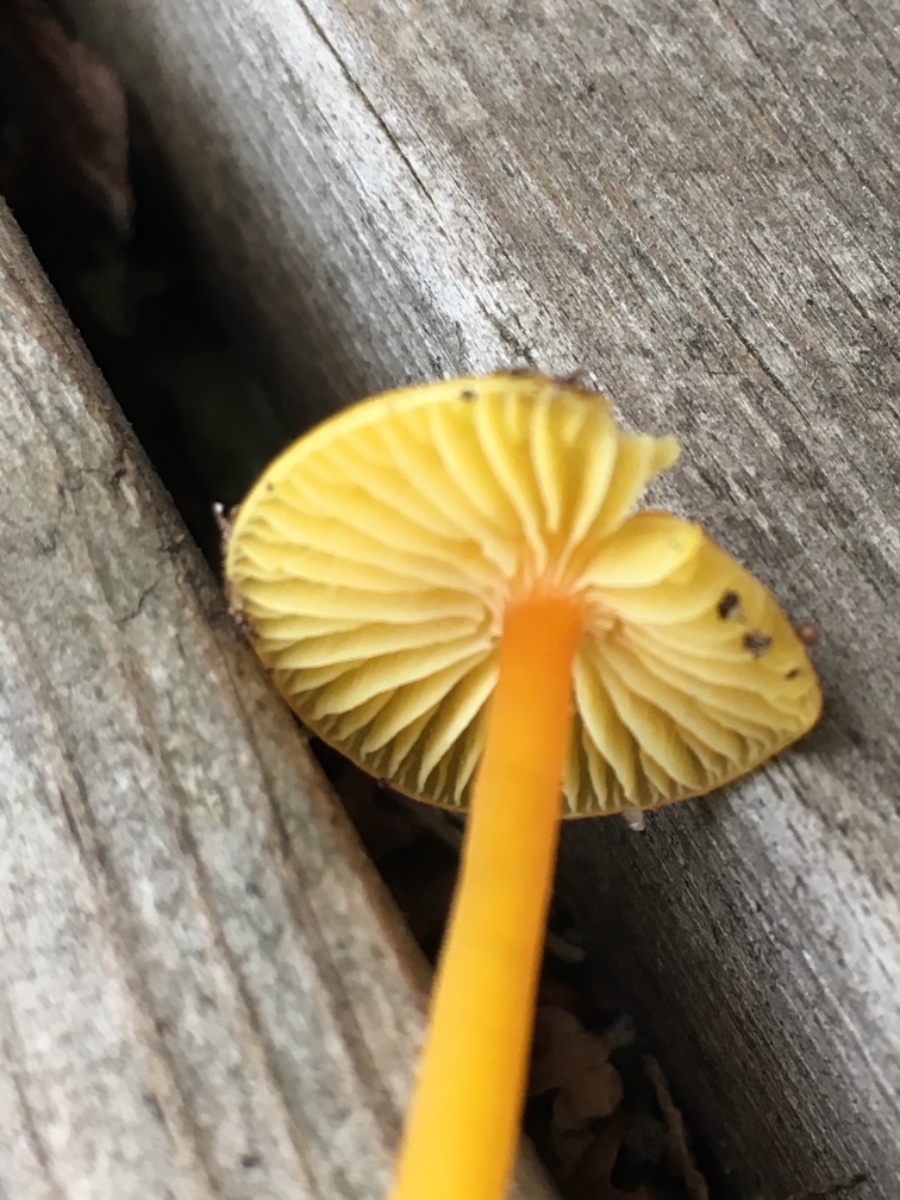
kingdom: Fungi
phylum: Basidiomycota
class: Agaricomycetes
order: Agaricales
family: Hygrophoraceae
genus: Hygrocybe
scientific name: Hygrocybe glutinipes
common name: slimstokket vokshat
